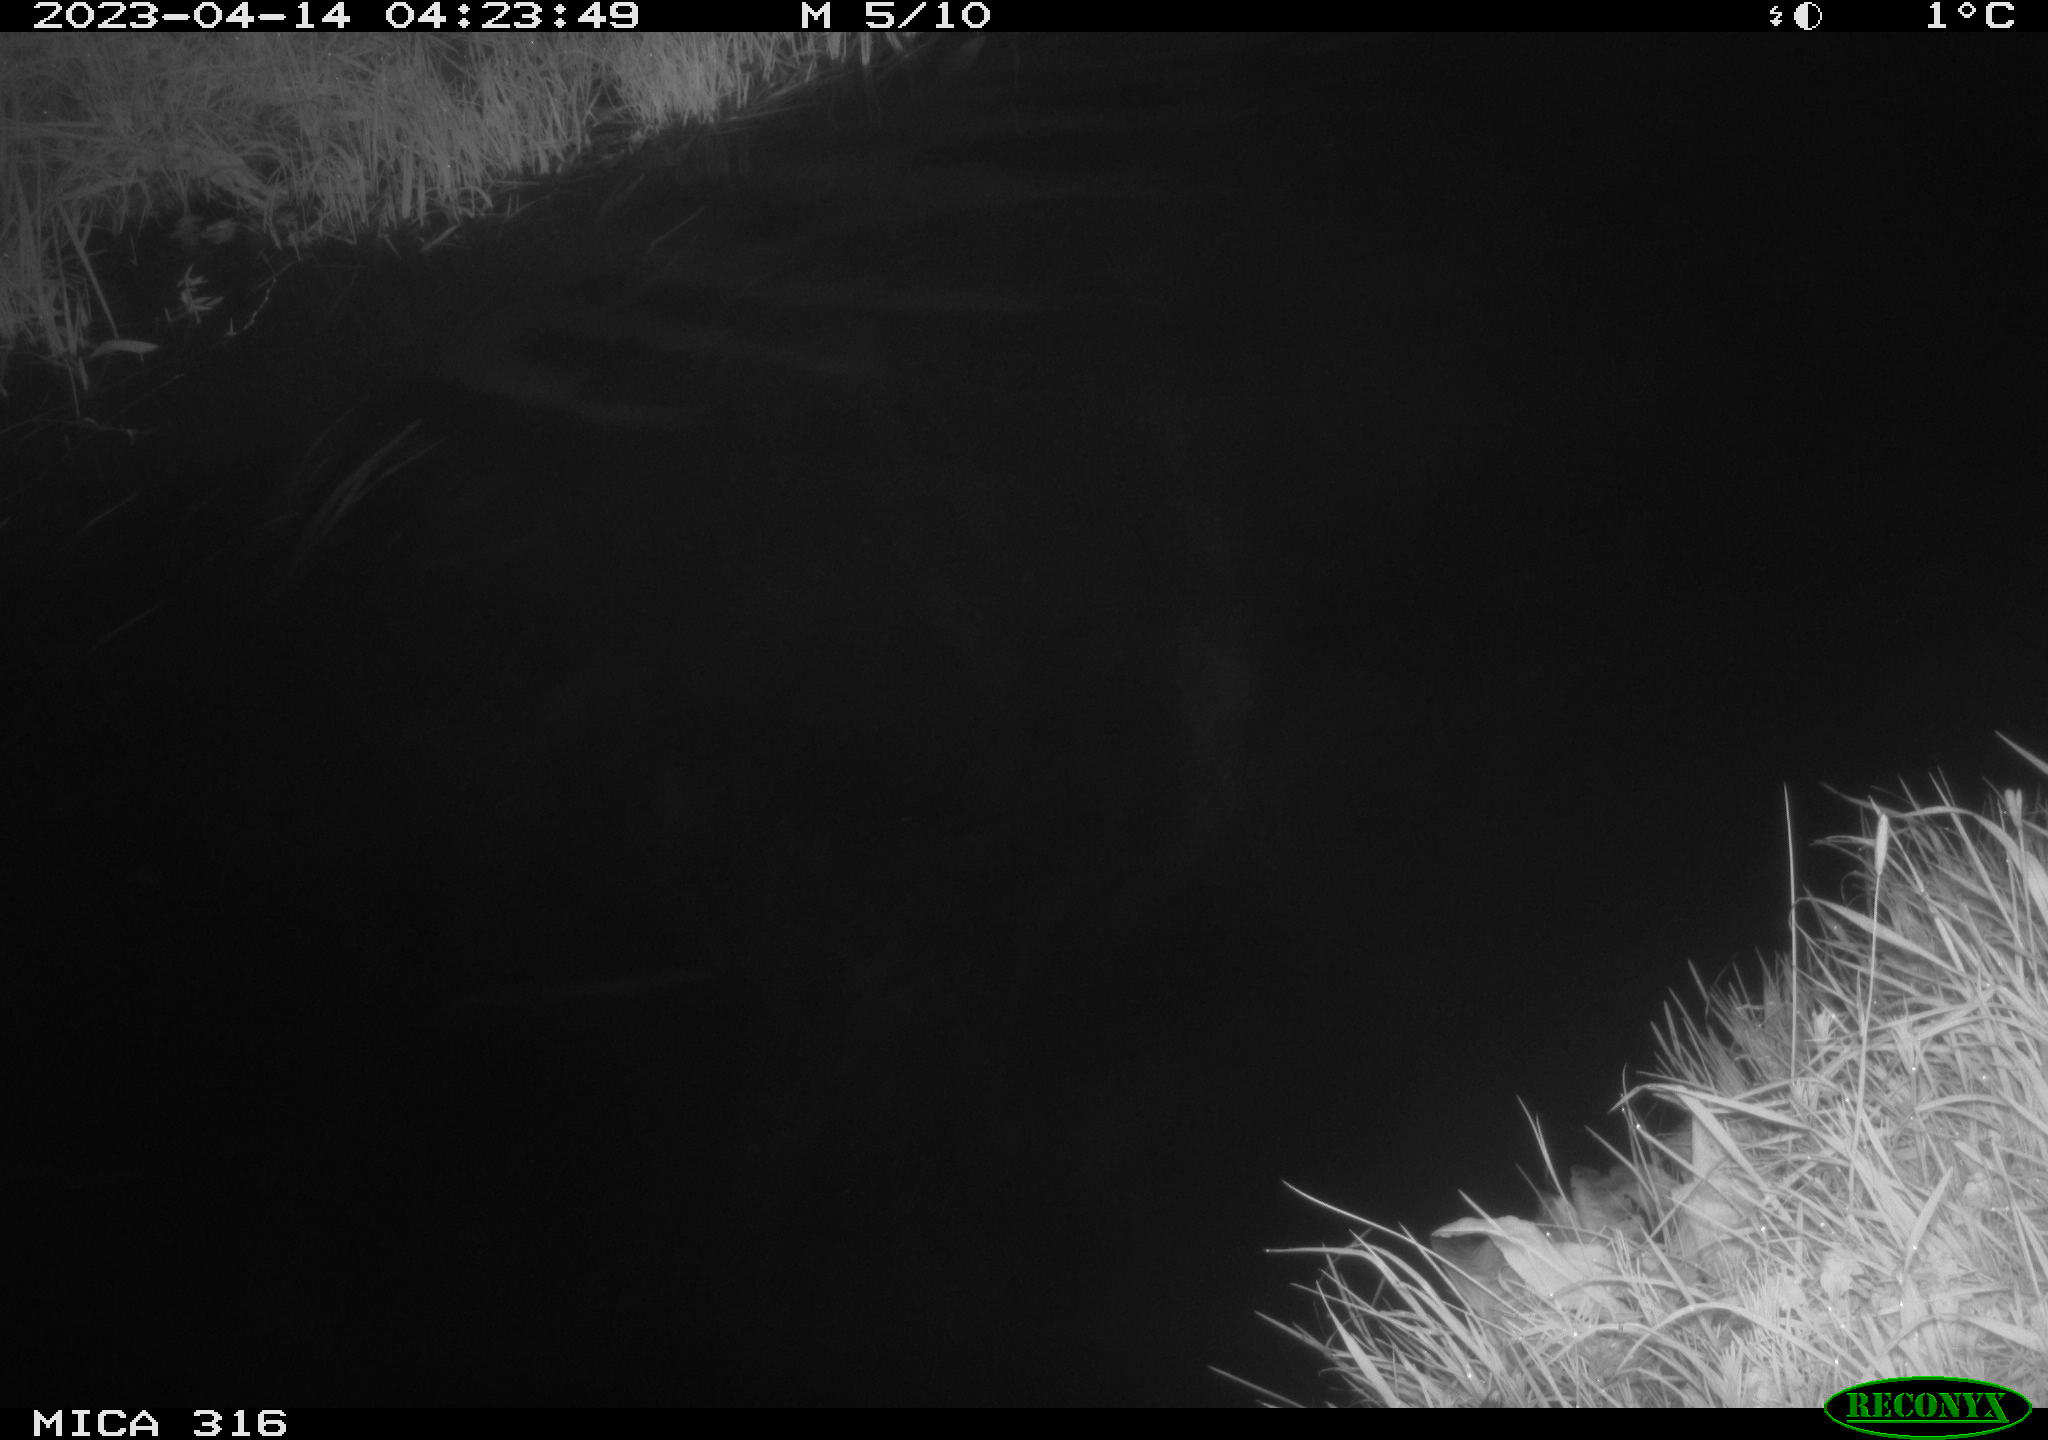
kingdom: Animalia
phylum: Chordata
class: Aves
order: Anseriformes
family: Anatidae
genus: Anas
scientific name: Anas
